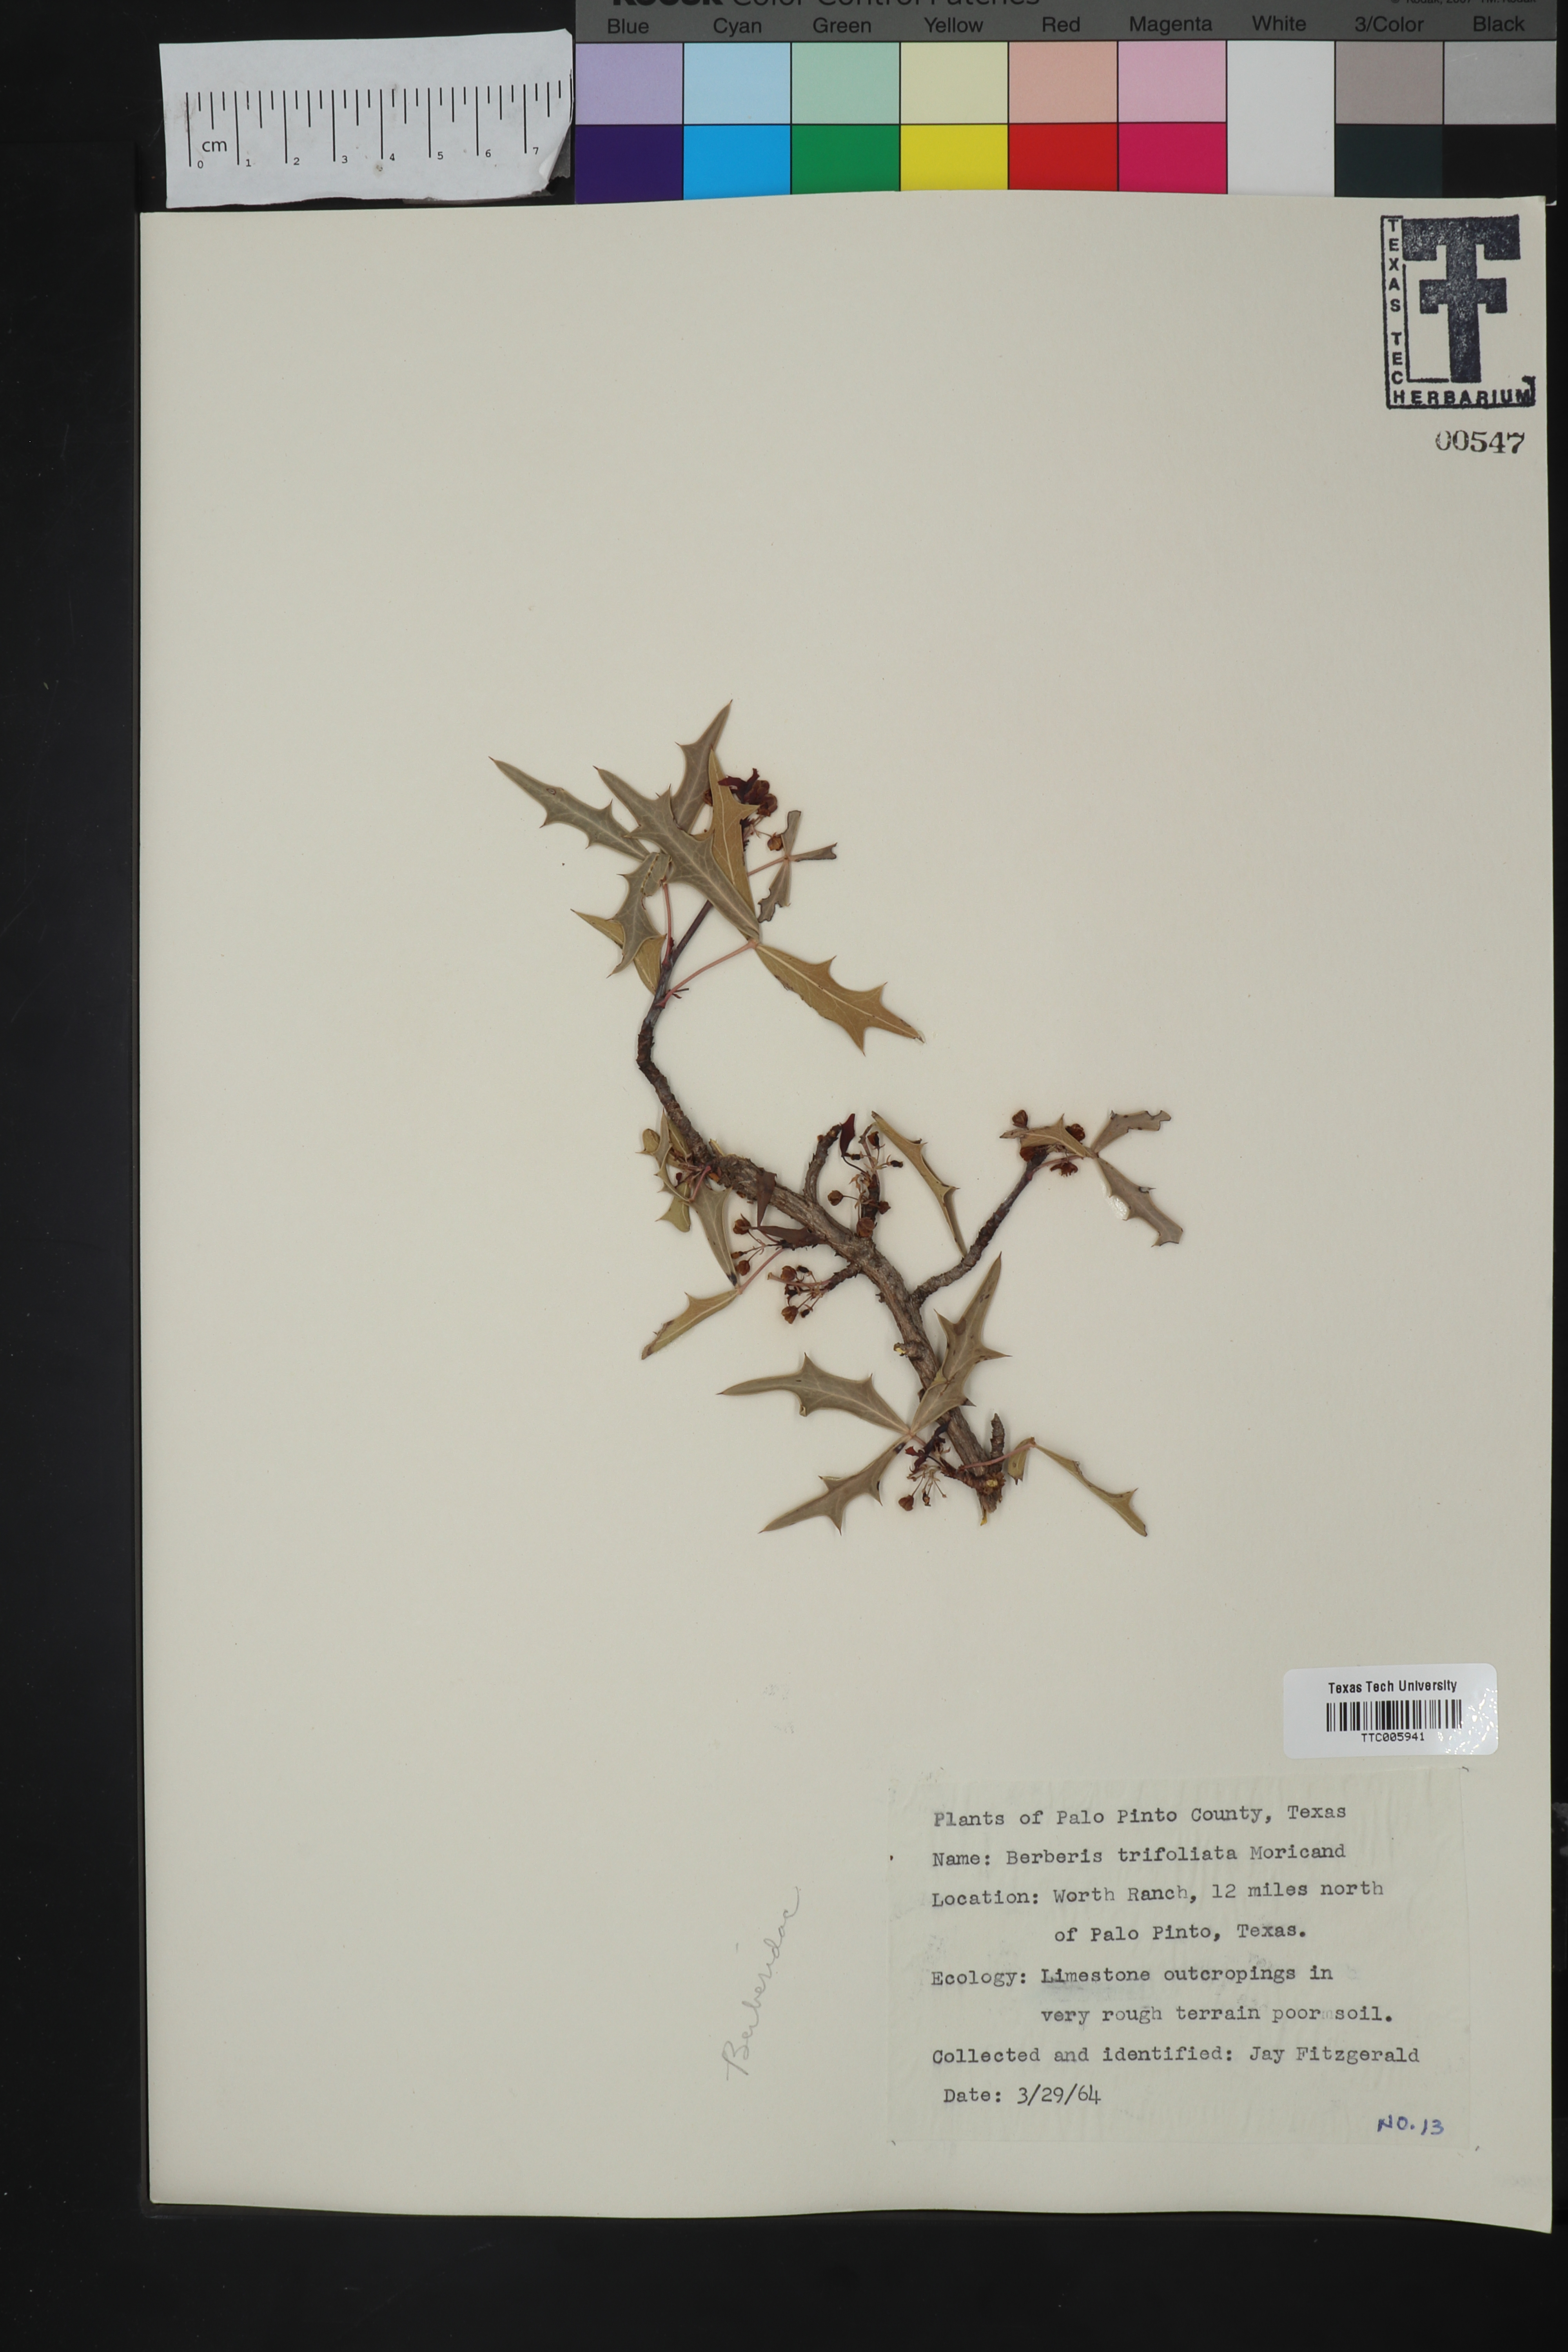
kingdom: Plantae
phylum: Tracheophyta
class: Magnoliopsida
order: Ranunculales
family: Berberidaceae
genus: Alloberberis
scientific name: Alloberberis trifoliolata
